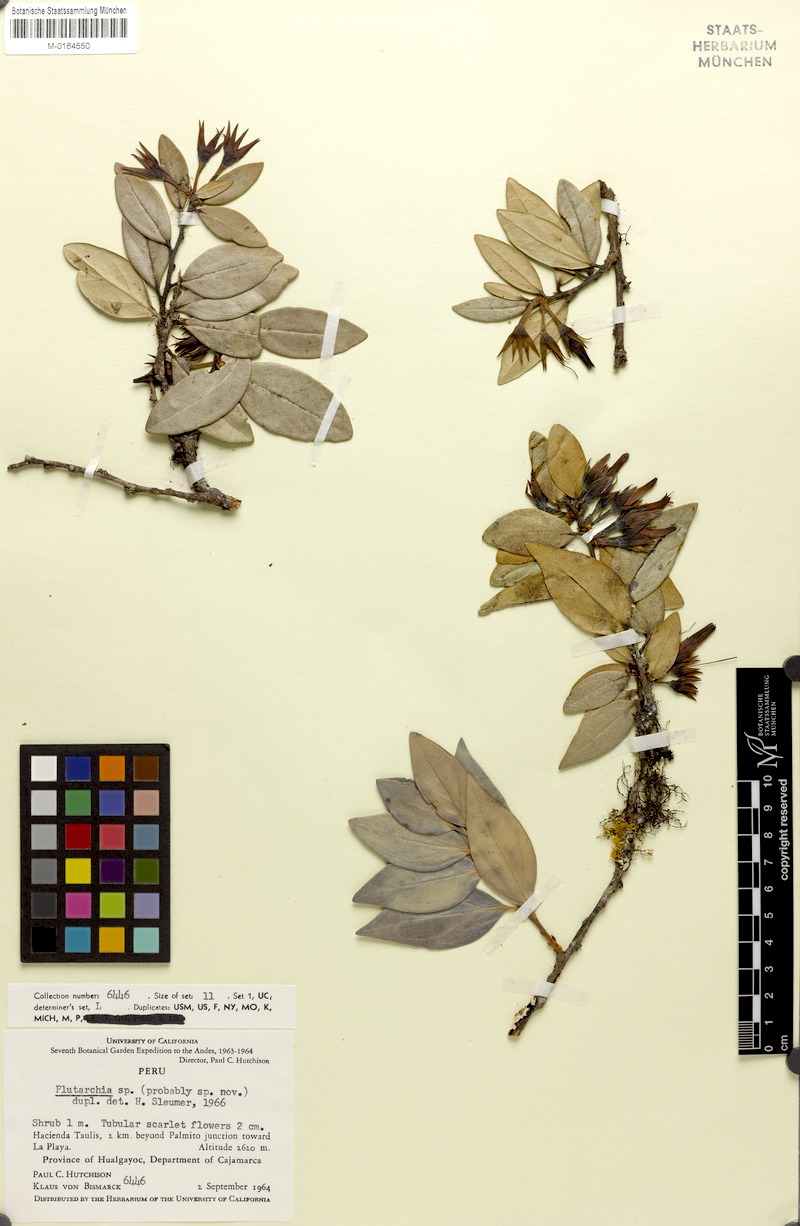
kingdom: Plantae
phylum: Tracheophyta
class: Magnoliopsida
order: Ericales
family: Ericaceae
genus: Plutarchia
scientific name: Plutarchia
